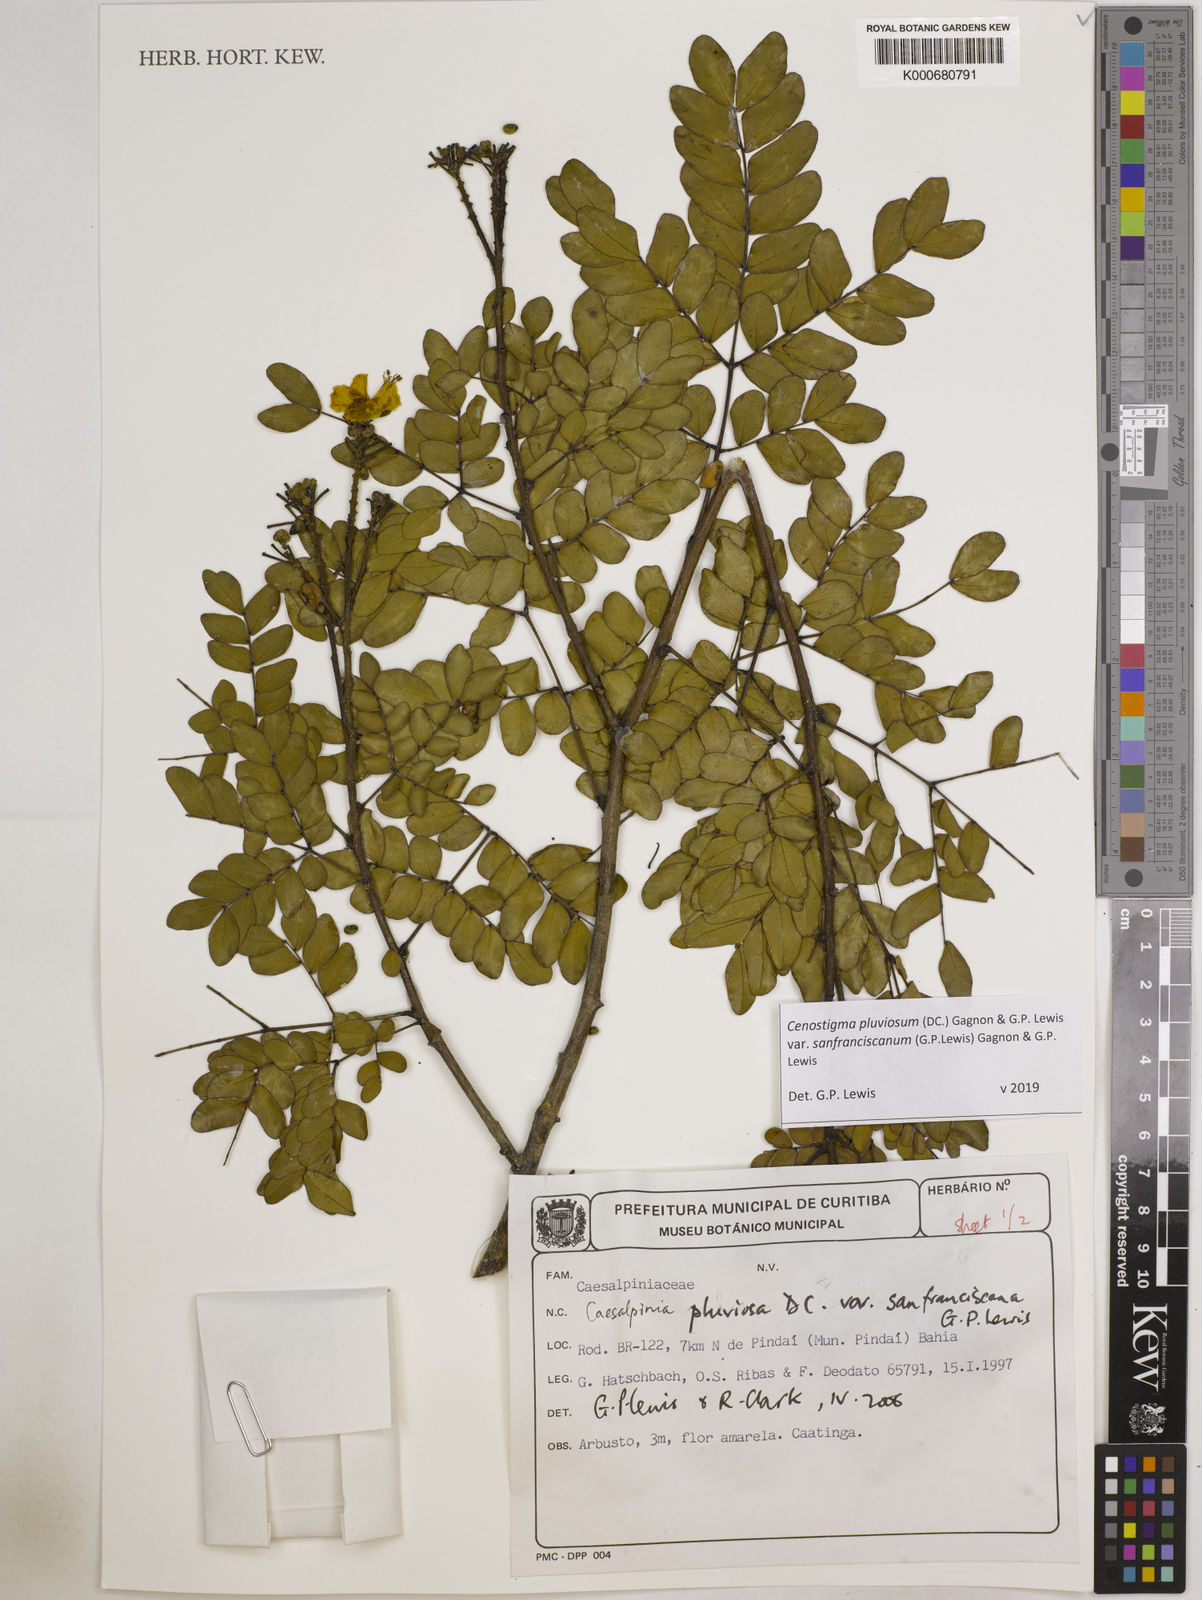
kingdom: Plantae
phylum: Tracheophyta
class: Magnoliopsida
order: Fabales
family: Fabaceae
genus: Cenostigma
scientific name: Cenostigma pluviosum
